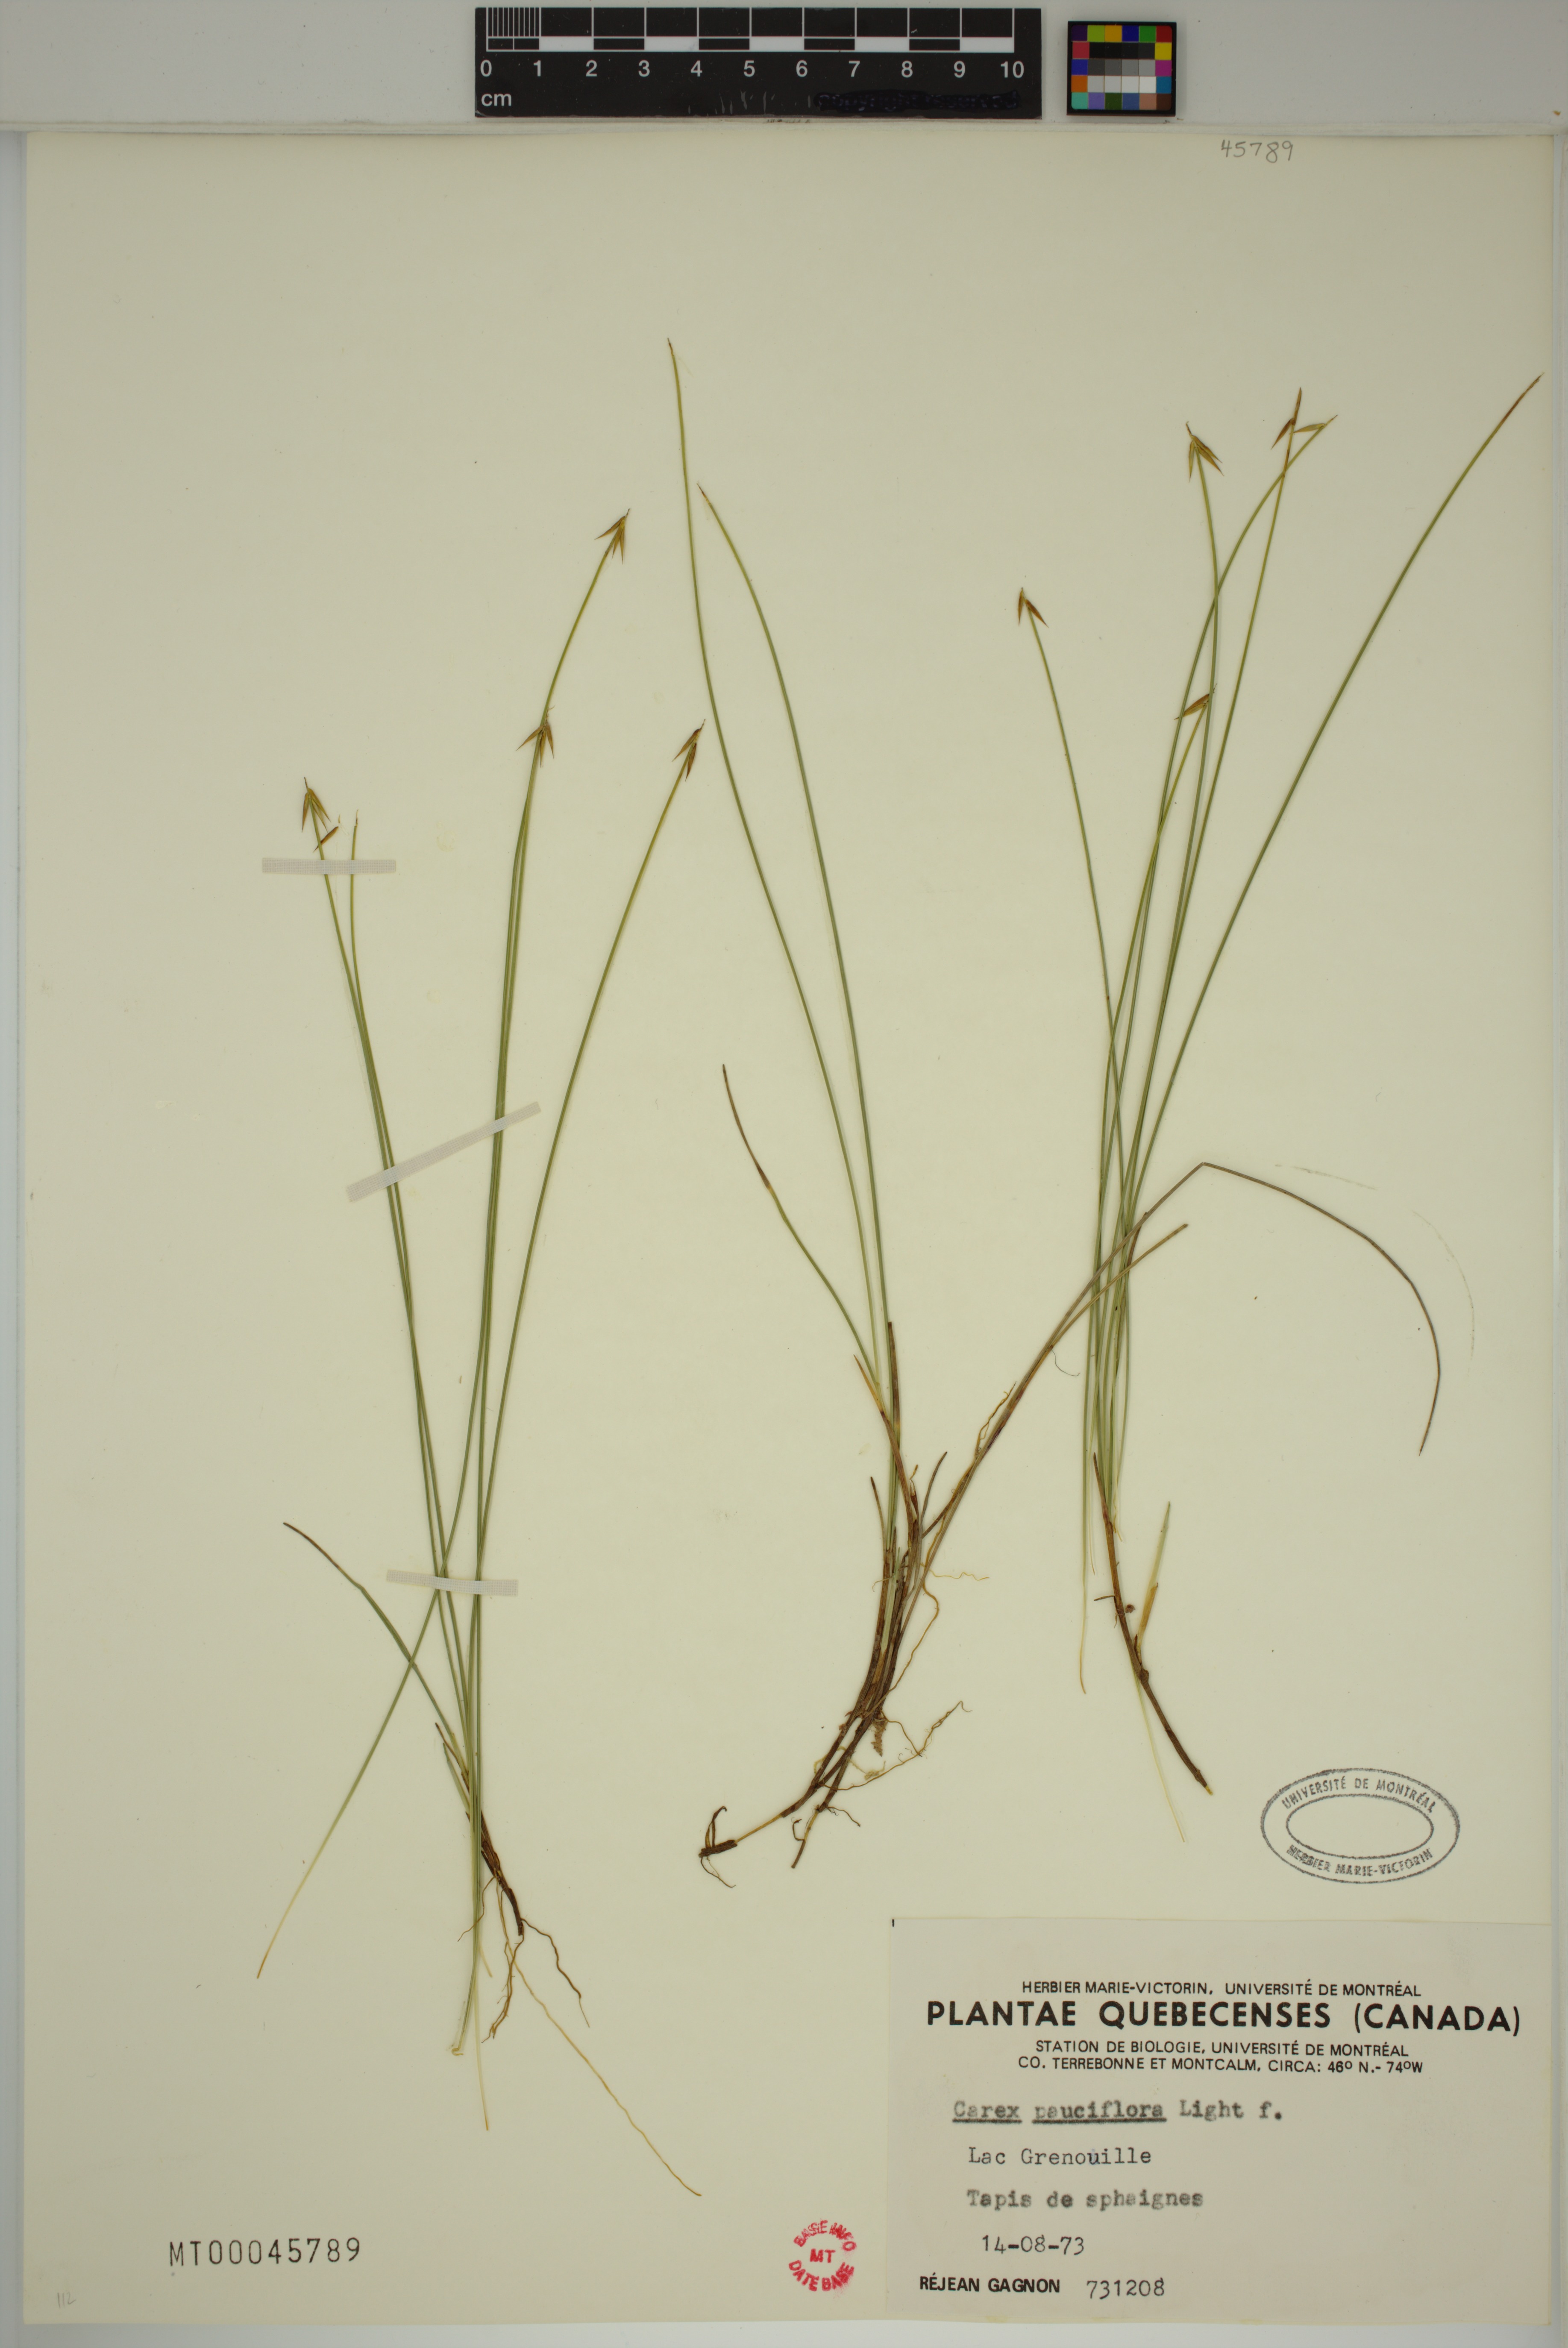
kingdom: Plantae
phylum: Tracheophyta
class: Liliopsida
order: Poales
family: Cyperaceae
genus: Carex
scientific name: Carex pauciflora
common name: Few-flowered sedge
